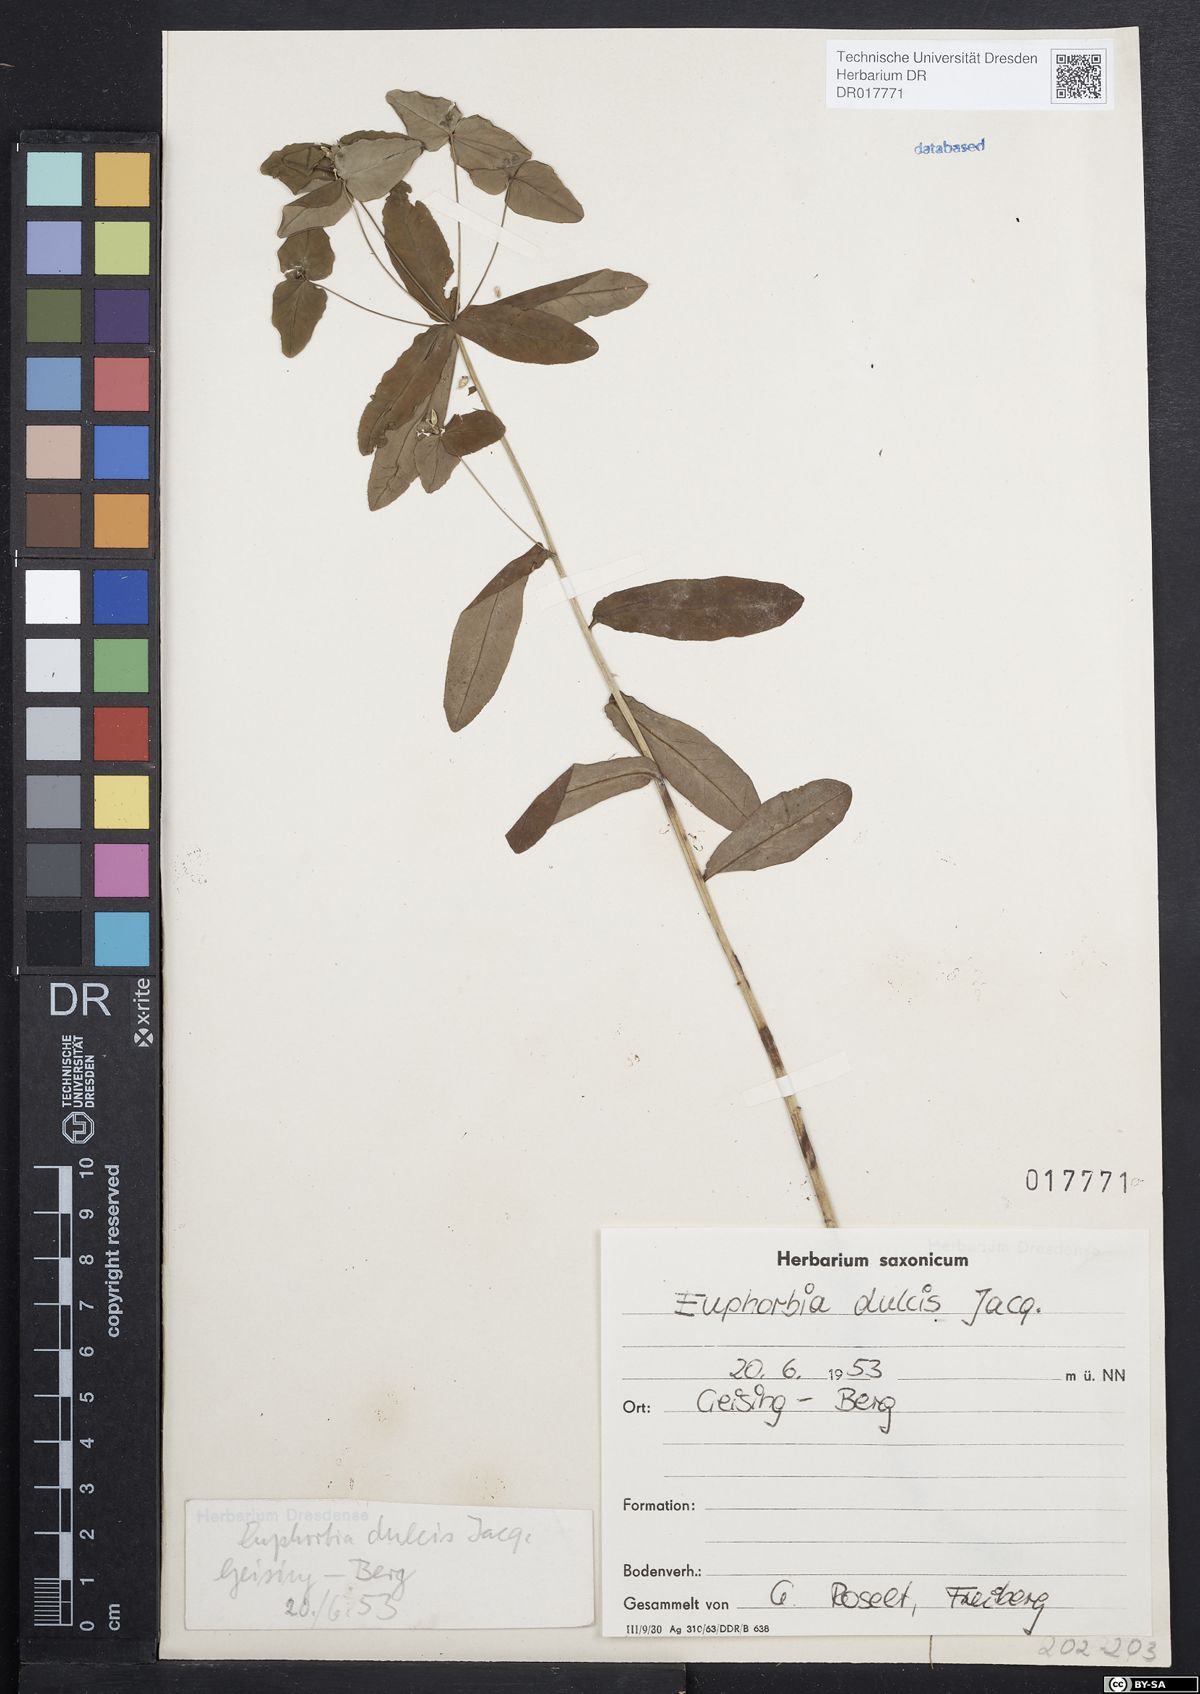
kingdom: Plantae
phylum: Tracheophyta
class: Magnoliopsida
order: Malpighiales
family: Euphorbiaceae
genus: Euphorbia
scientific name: Euphorbia dulcis
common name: Sweet spurge
